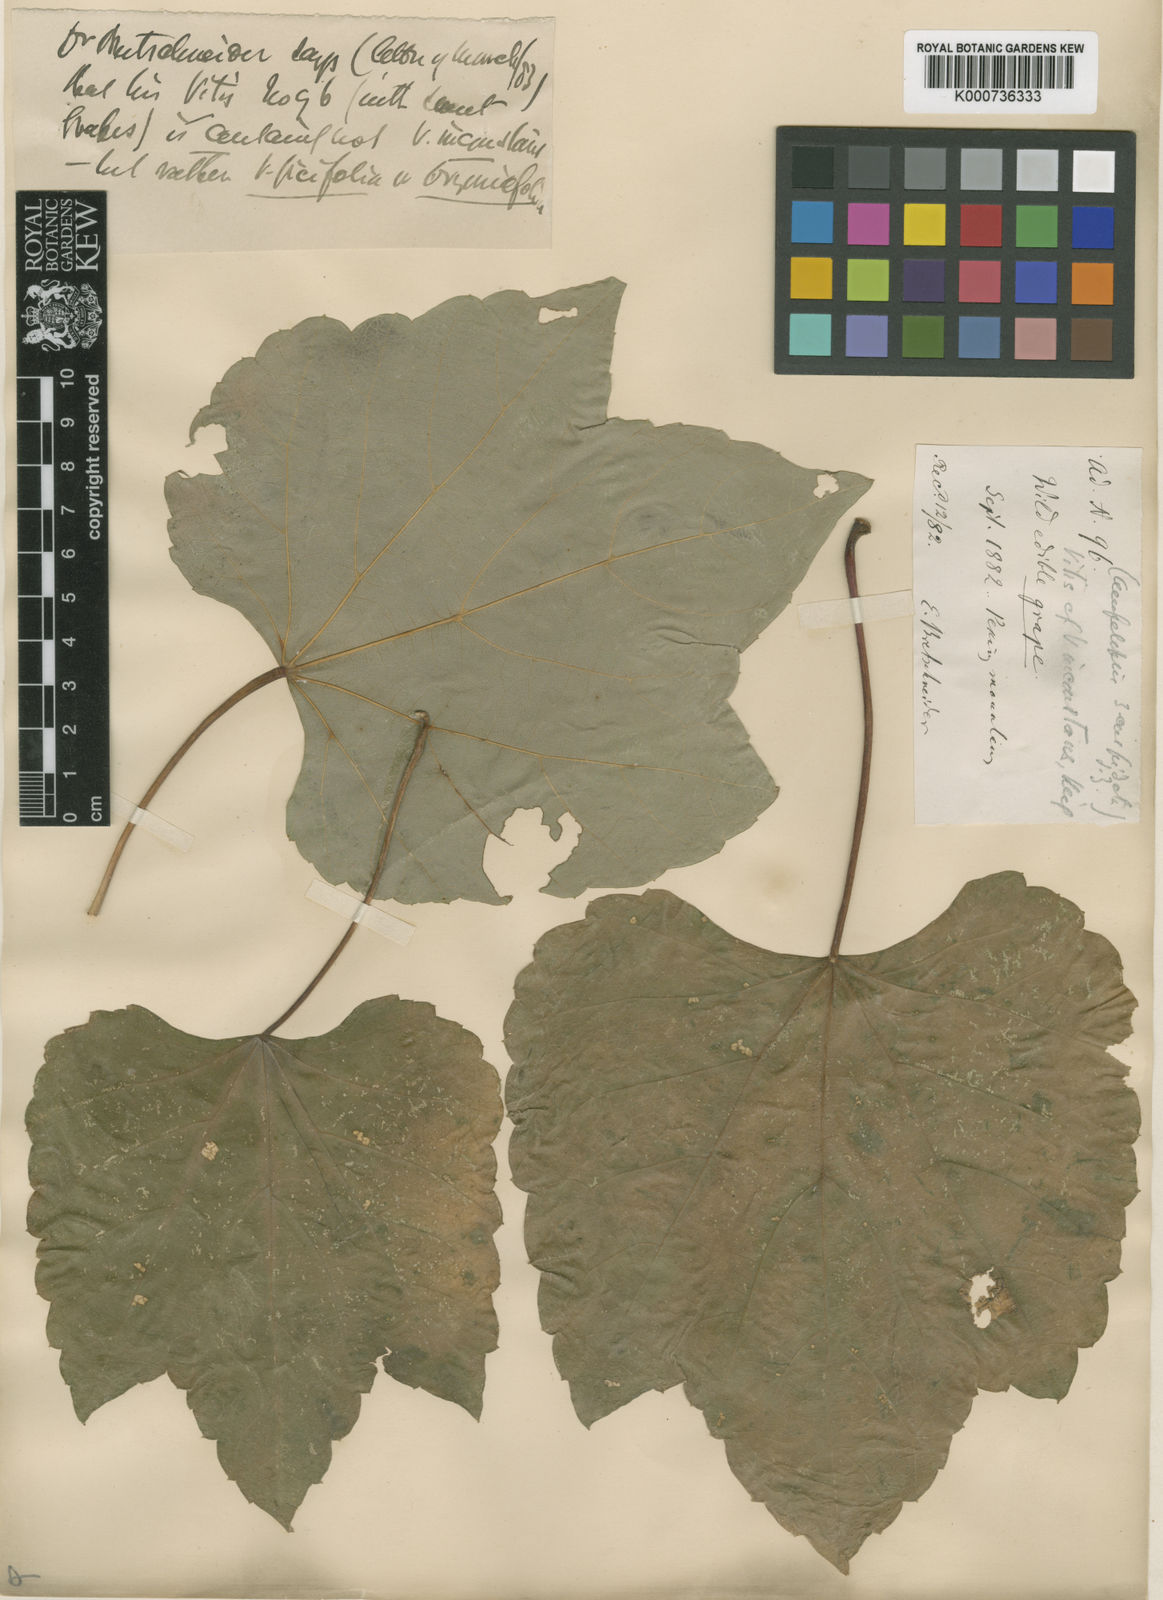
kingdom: Plantae
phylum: Tracheophyta
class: Magnoliopsida
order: Vitales
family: Vitaceae
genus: Parthenocissus
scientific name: Parthenocissus tricuspidata
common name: Boston ivy
